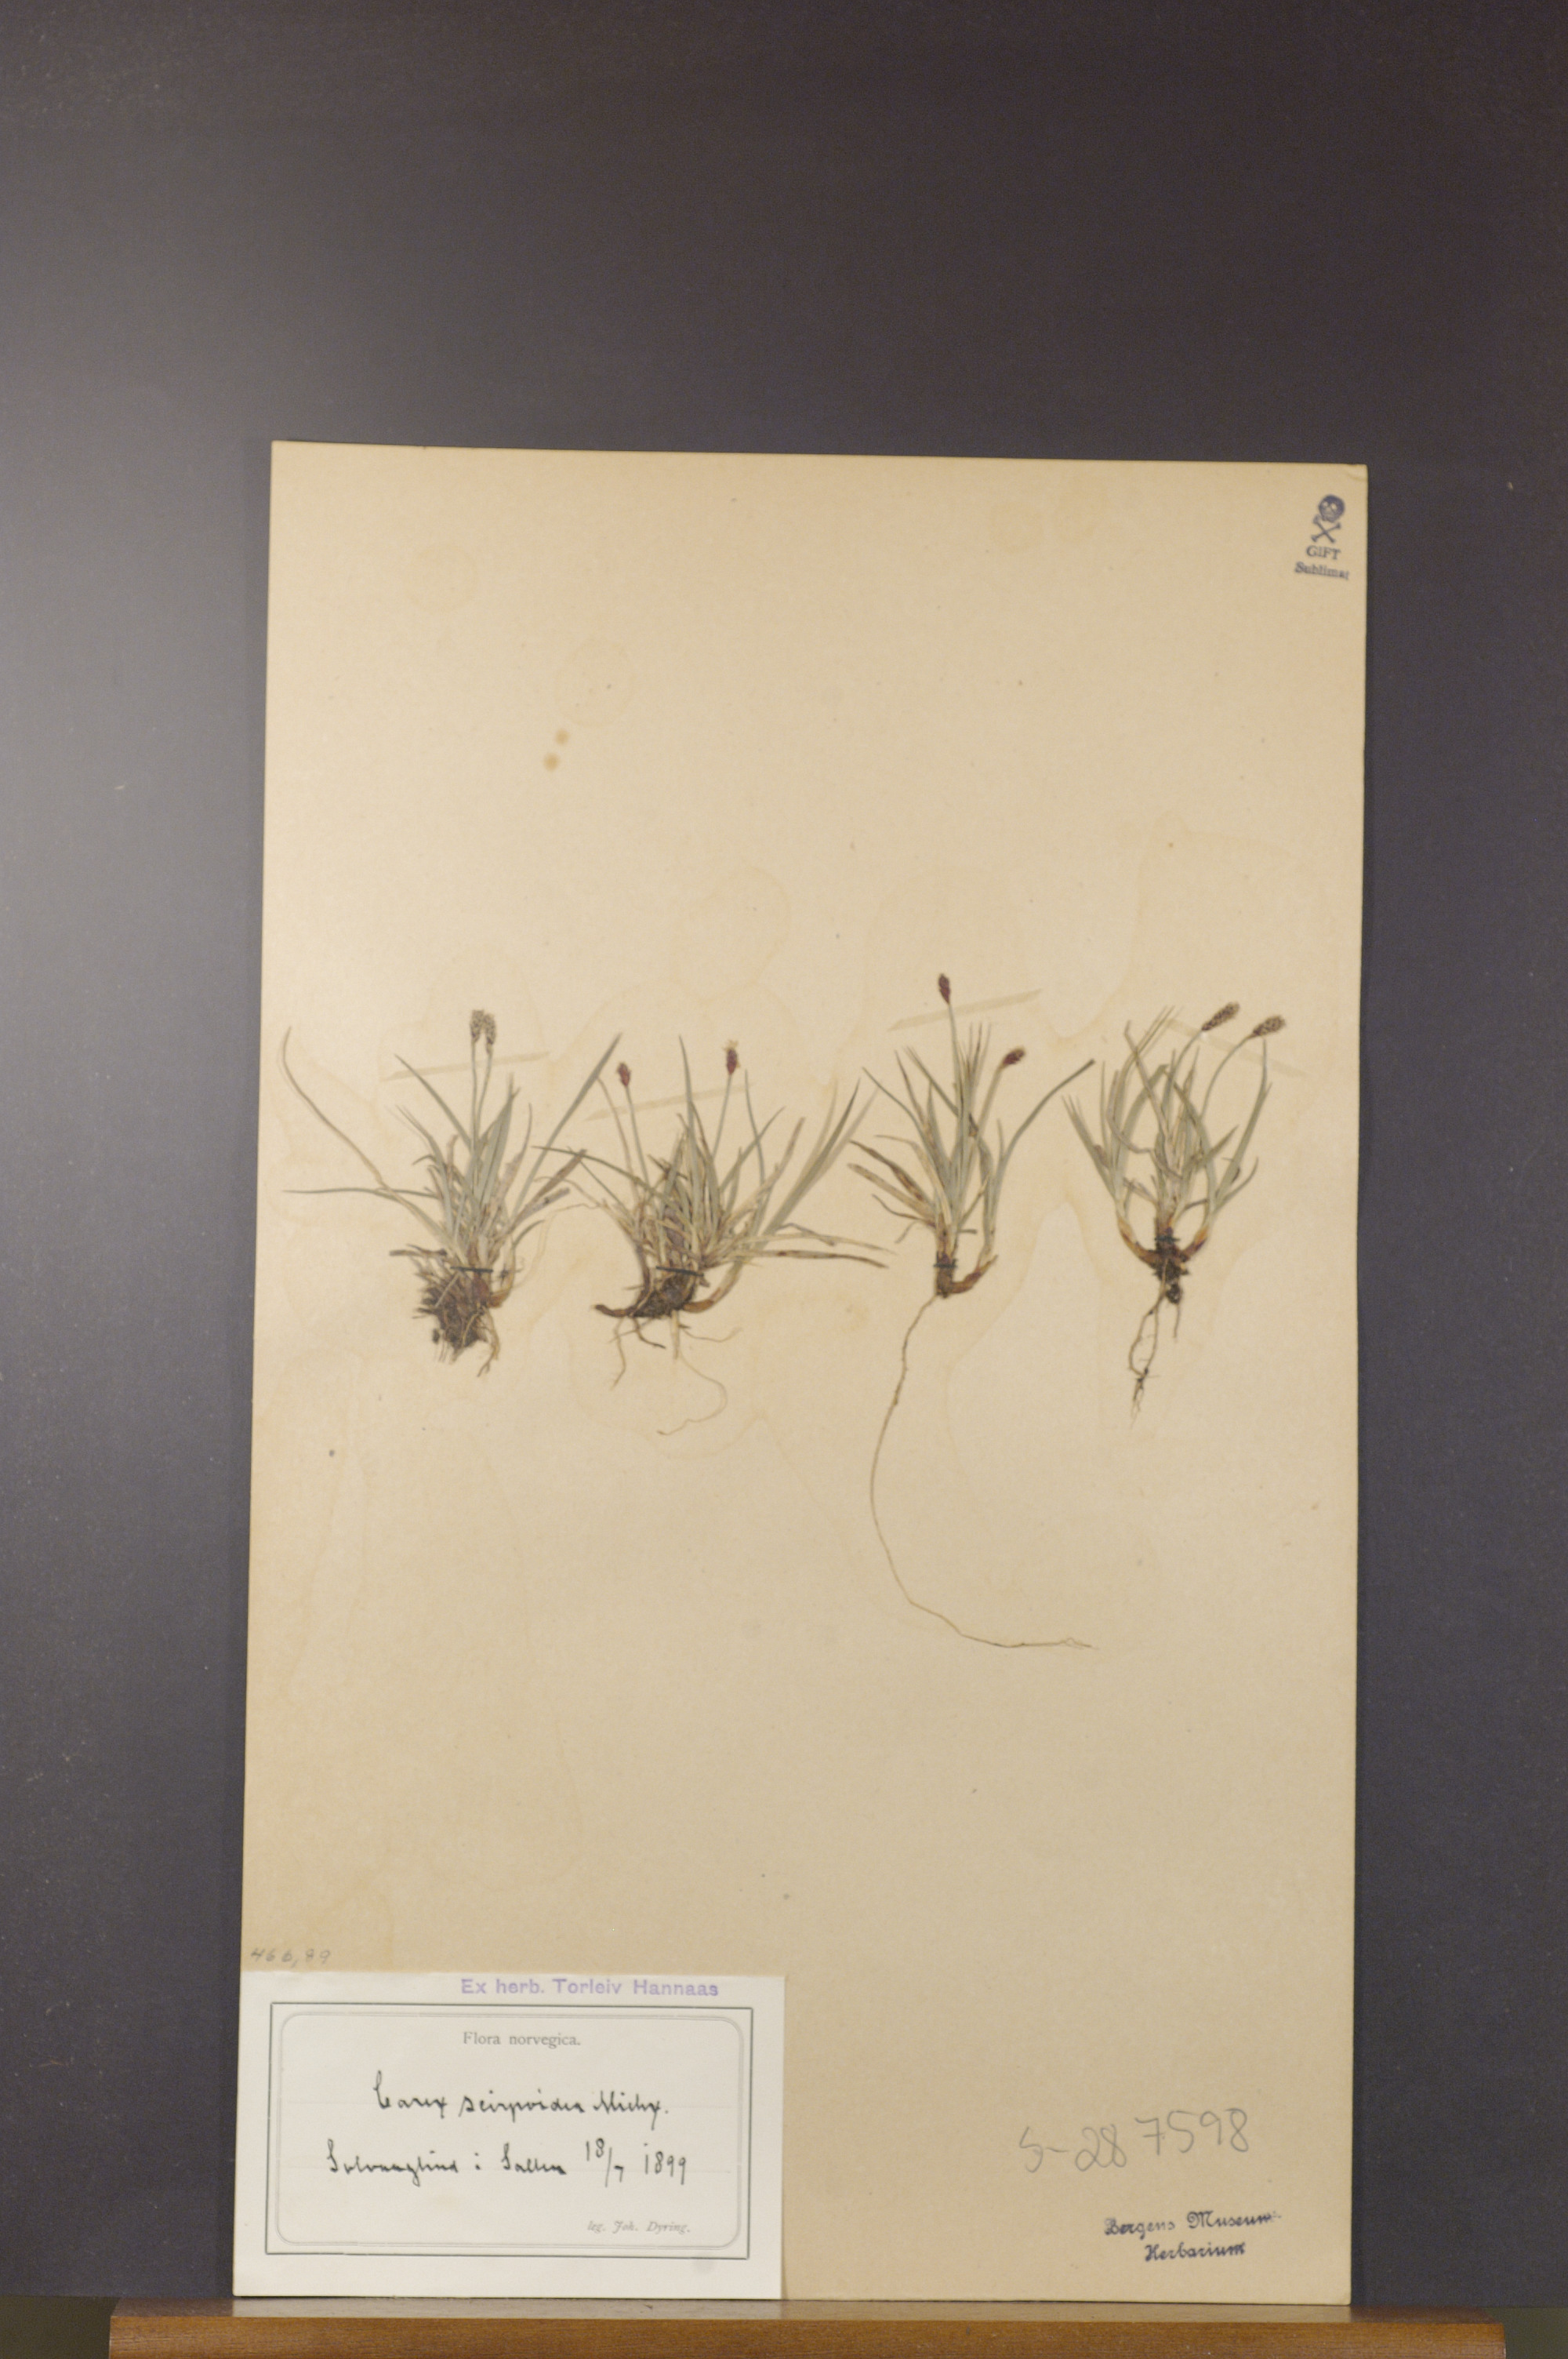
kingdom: Plantae
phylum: Tracheophyta
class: Liliopsida
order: Poales
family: Cyperaceae
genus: Carex
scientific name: Carex scirpoidea
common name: Canada single-spike sedge
